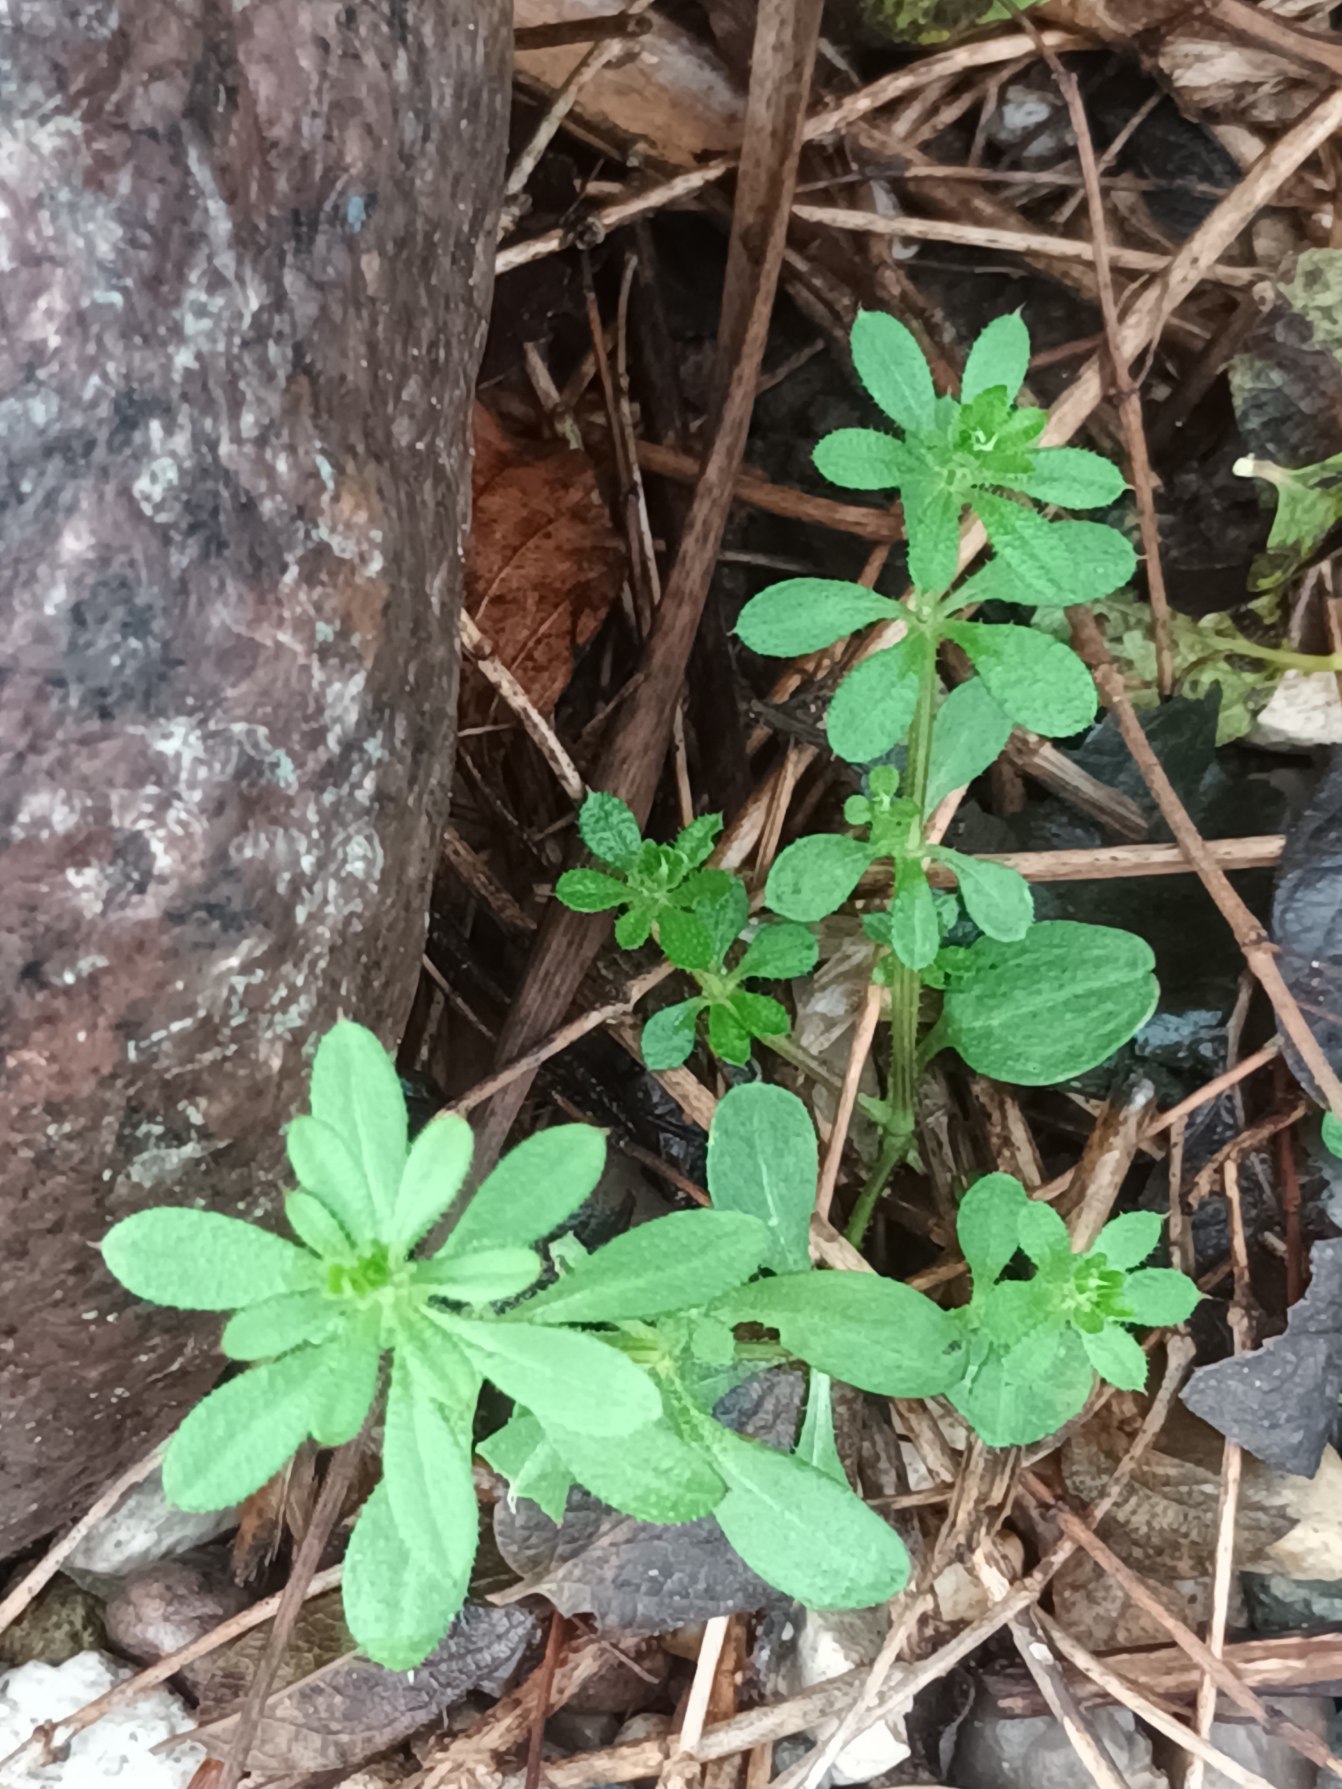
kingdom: Plantae
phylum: Tracheophyta
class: Magnoliopsida
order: Gentianales
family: Rubiaceae
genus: Galium
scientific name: Galium aparine
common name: Burre-snerre
